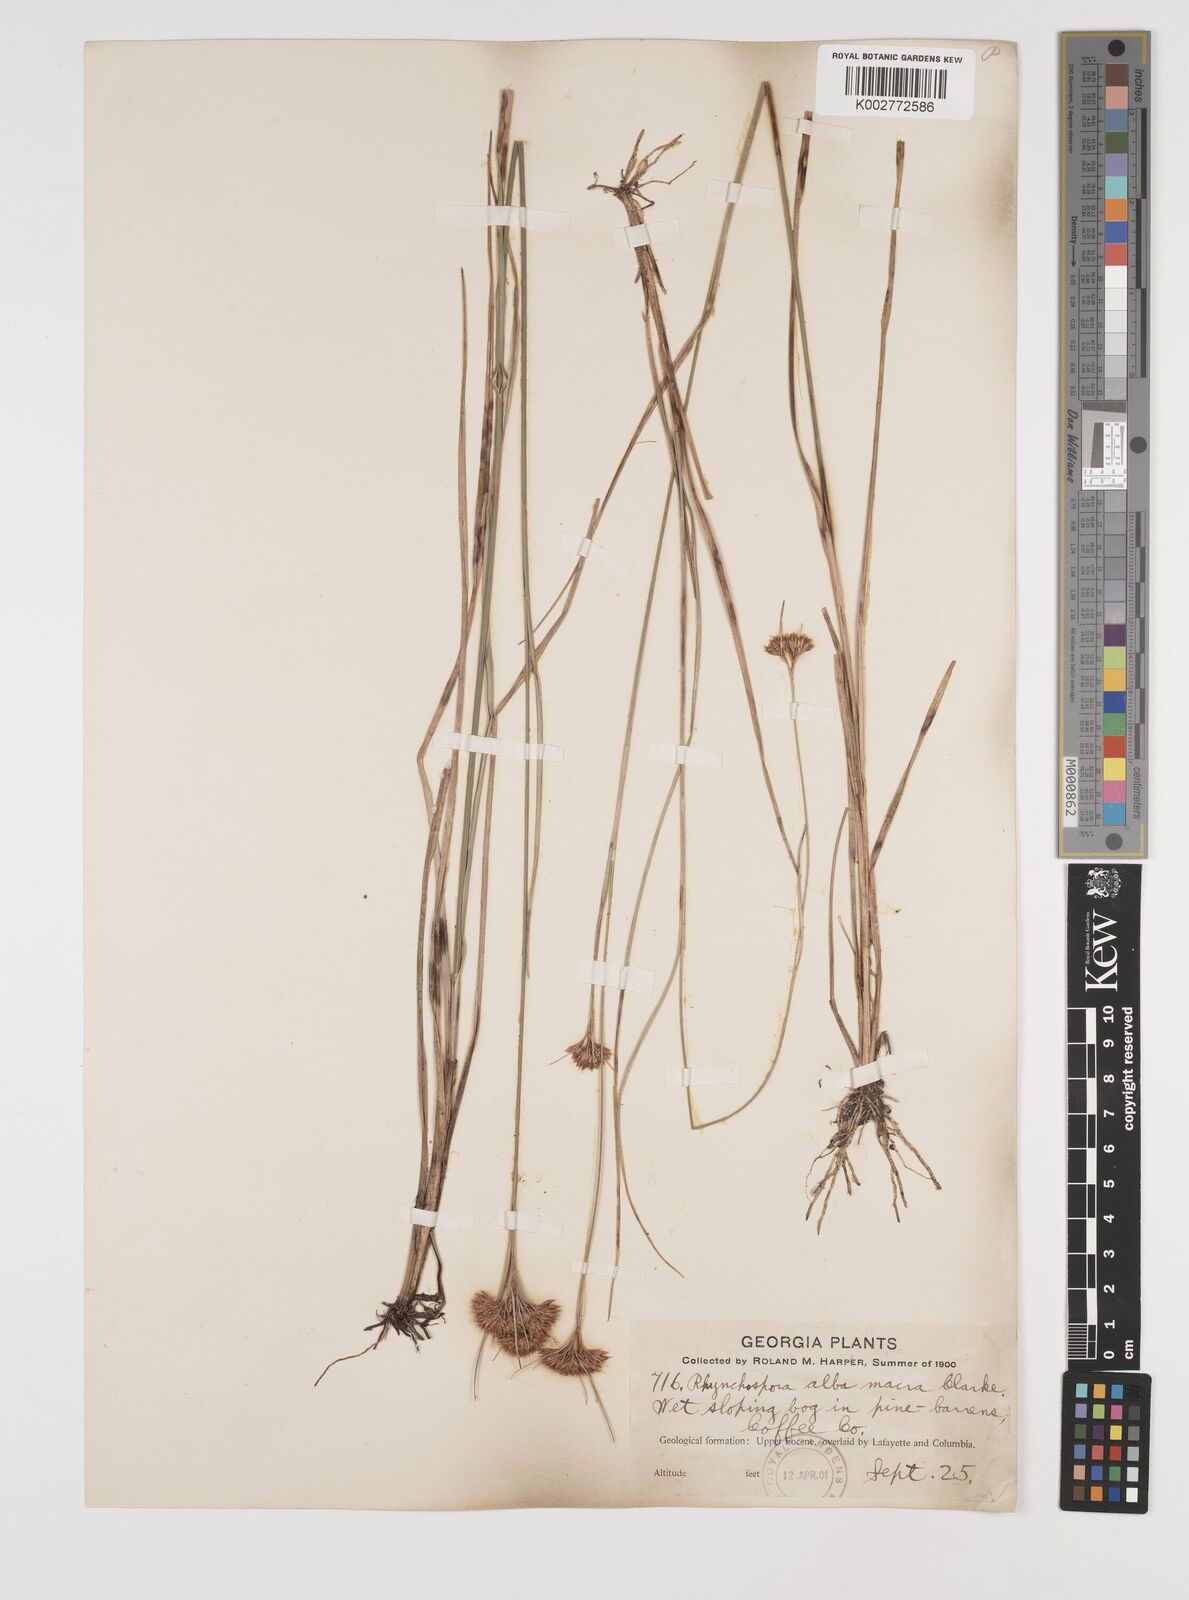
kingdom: Plantae
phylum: Tracheophyta
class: Liliopsida
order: Poales
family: Cyperaceae
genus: Rhynchospora
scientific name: Rhynchospora alba
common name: White beak-sedge
